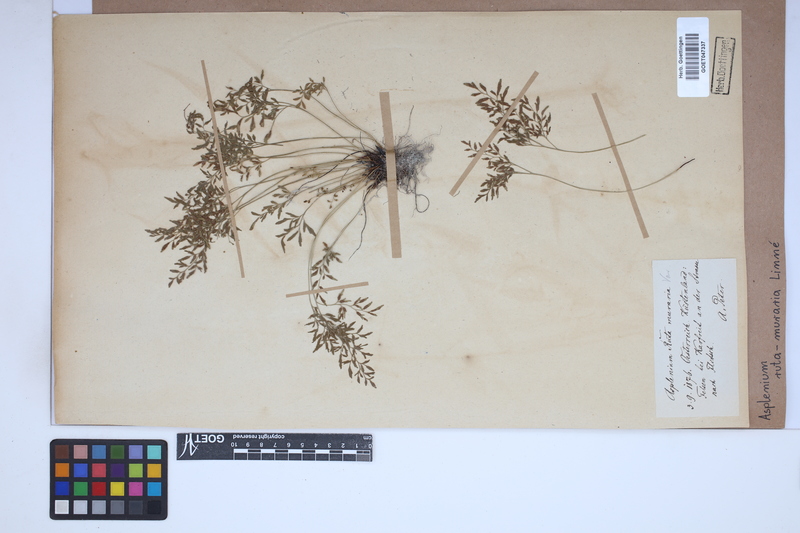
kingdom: Plantae
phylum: Tracheophyta
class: Polypodiopsida
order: Polypodiales
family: Aspleniaceae
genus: Asplenium
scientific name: Asplenium ruta-muraria
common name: Wall-rue
